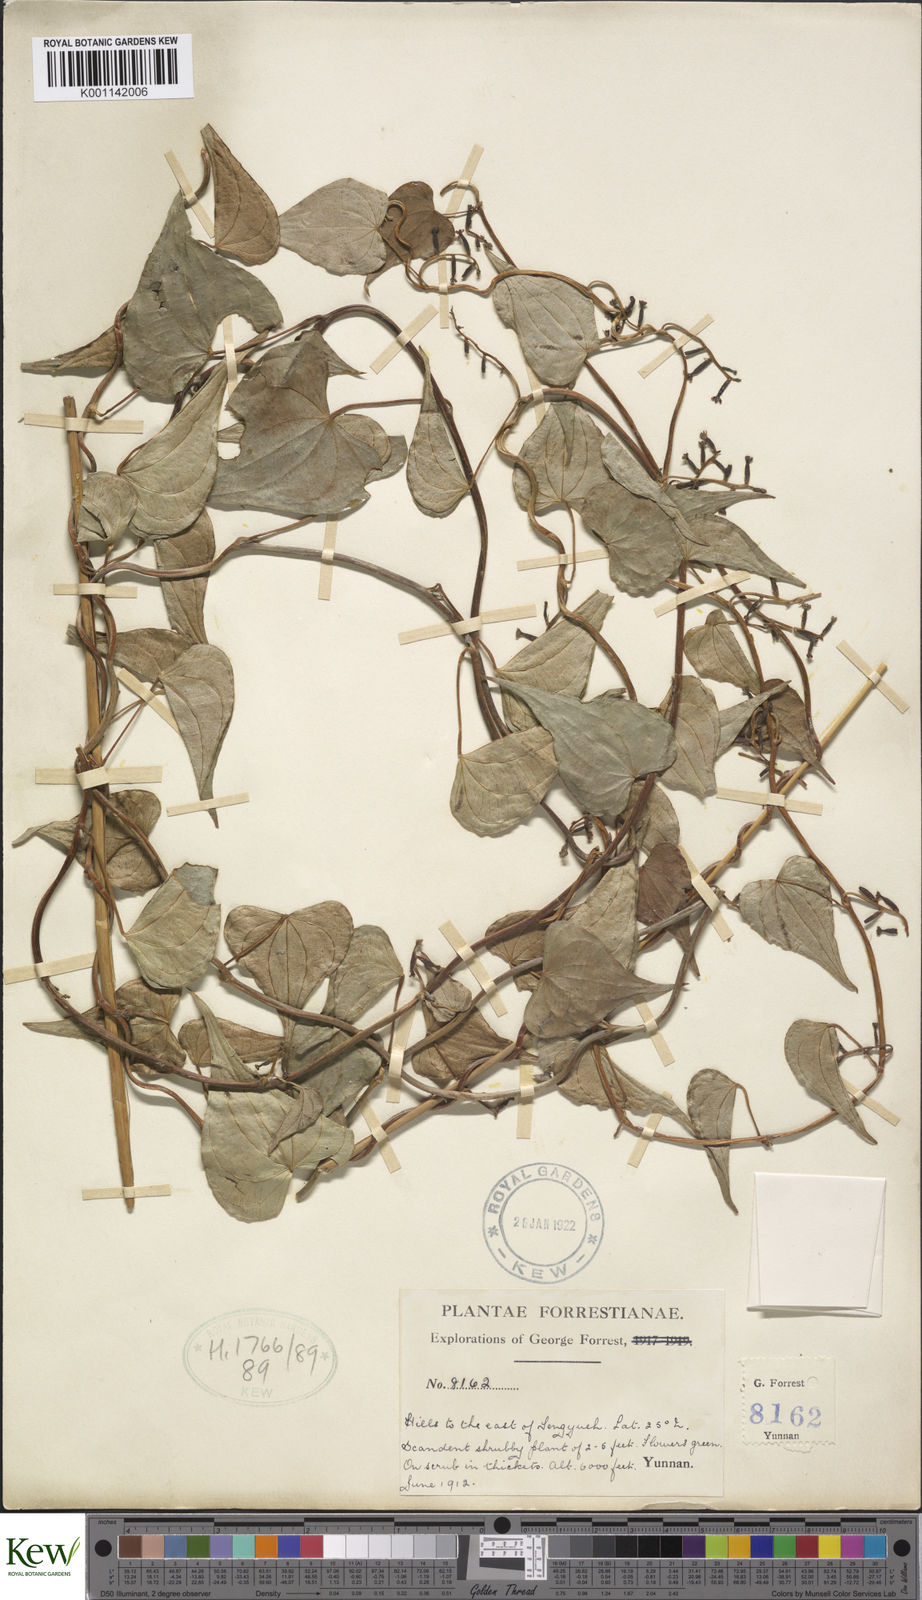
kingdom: Plantae
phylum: Tracheophyta
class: Liliopsida
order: Dioscoreales
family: Dioscoreaceae
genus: Dioscorea
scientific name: Dioscorea
